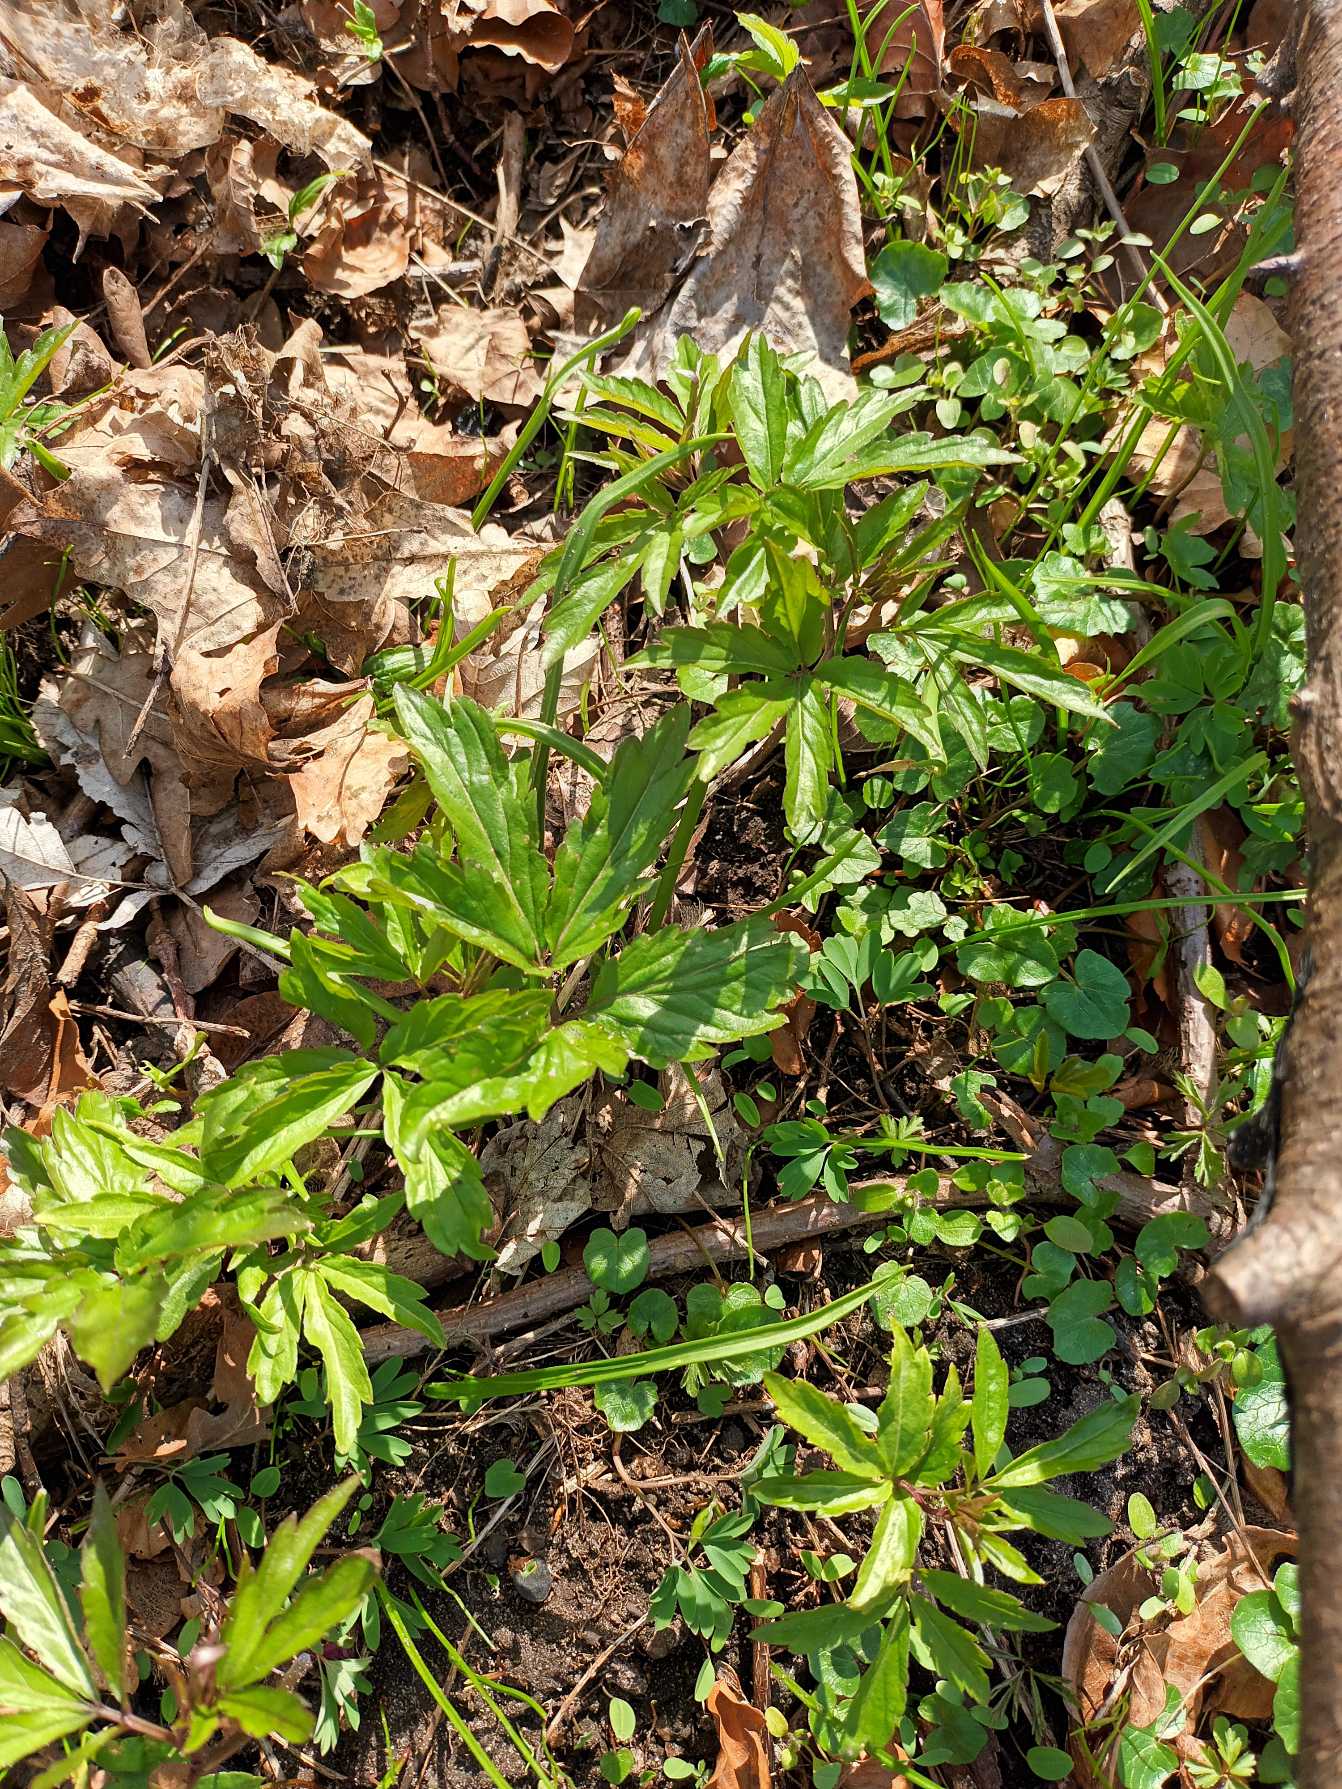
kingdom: Plantae
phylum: Tracheophyta
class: Magnoliopsida
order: Brassicales
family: Brassicaceae
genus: Cardamine
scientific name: Cardamine bulbifera
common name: Tandrod
